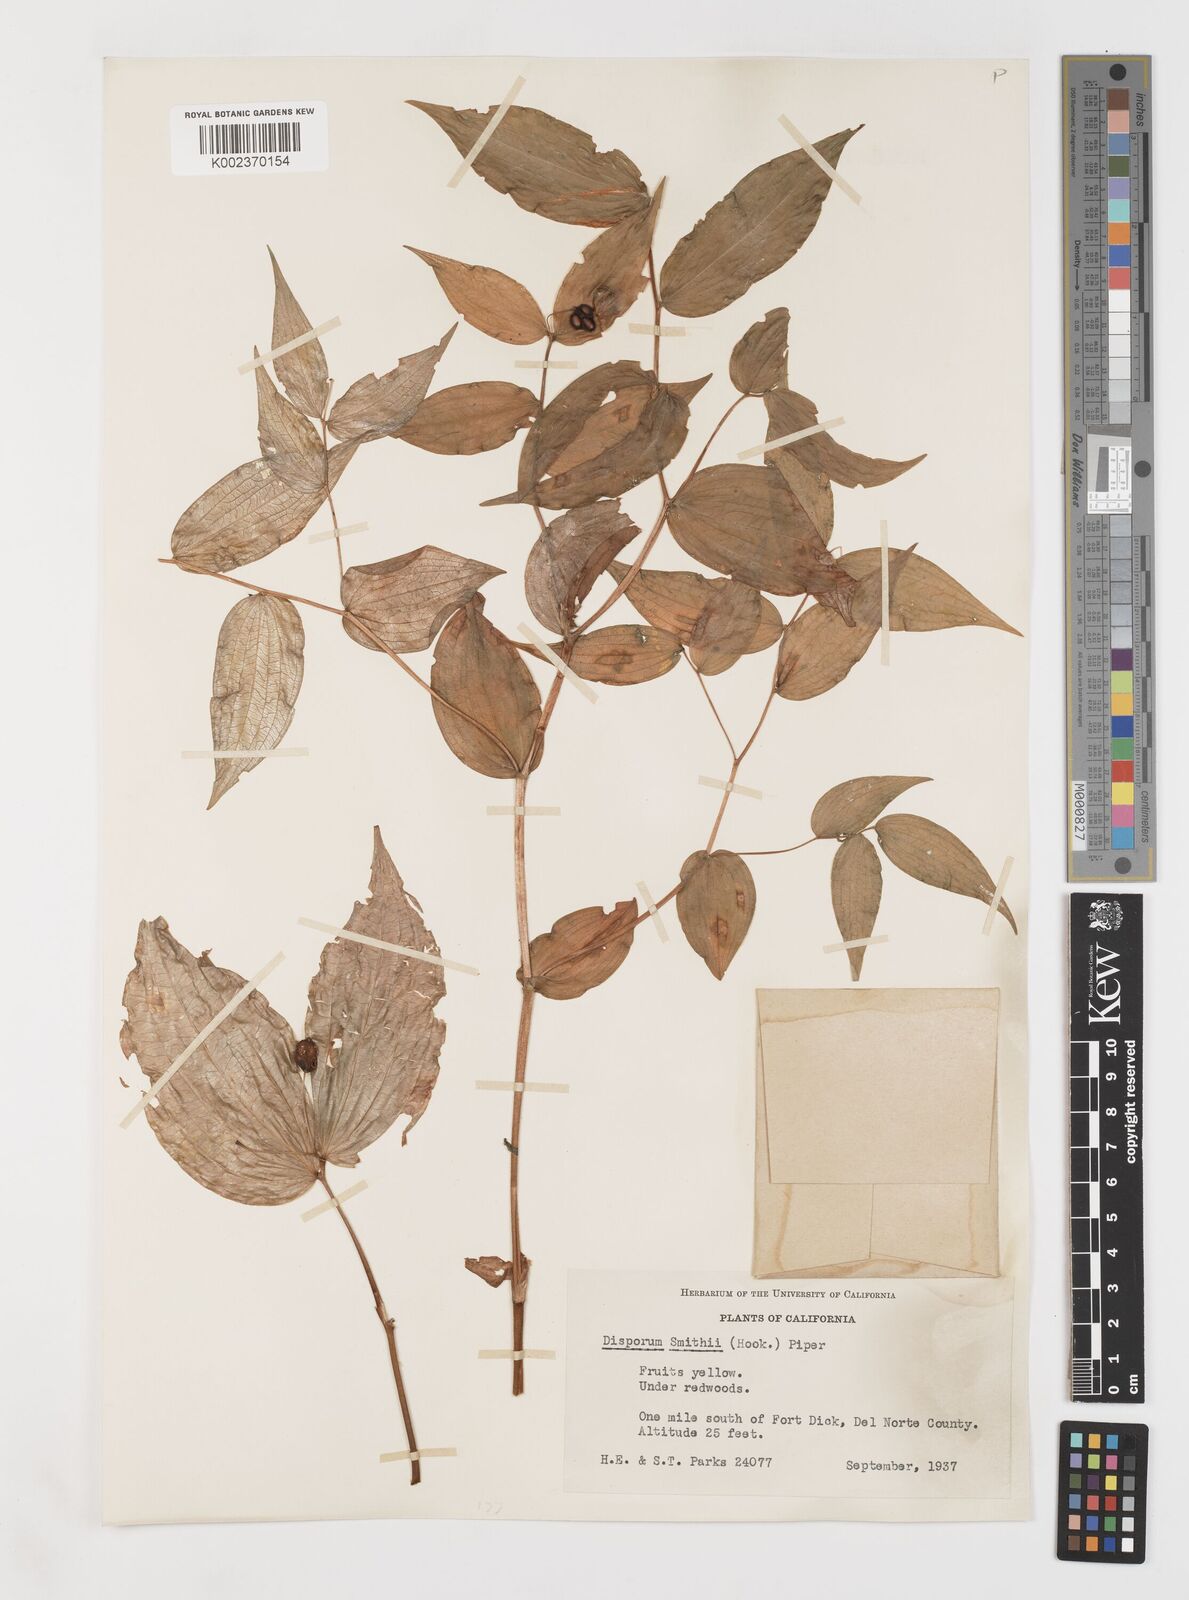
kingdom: Plantae
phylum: Tracheophyta
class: Liliopsida
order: Liliales
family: Liliaceae
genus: Prosartes
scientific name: Prosartes smithii
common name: Fairy-lantern
